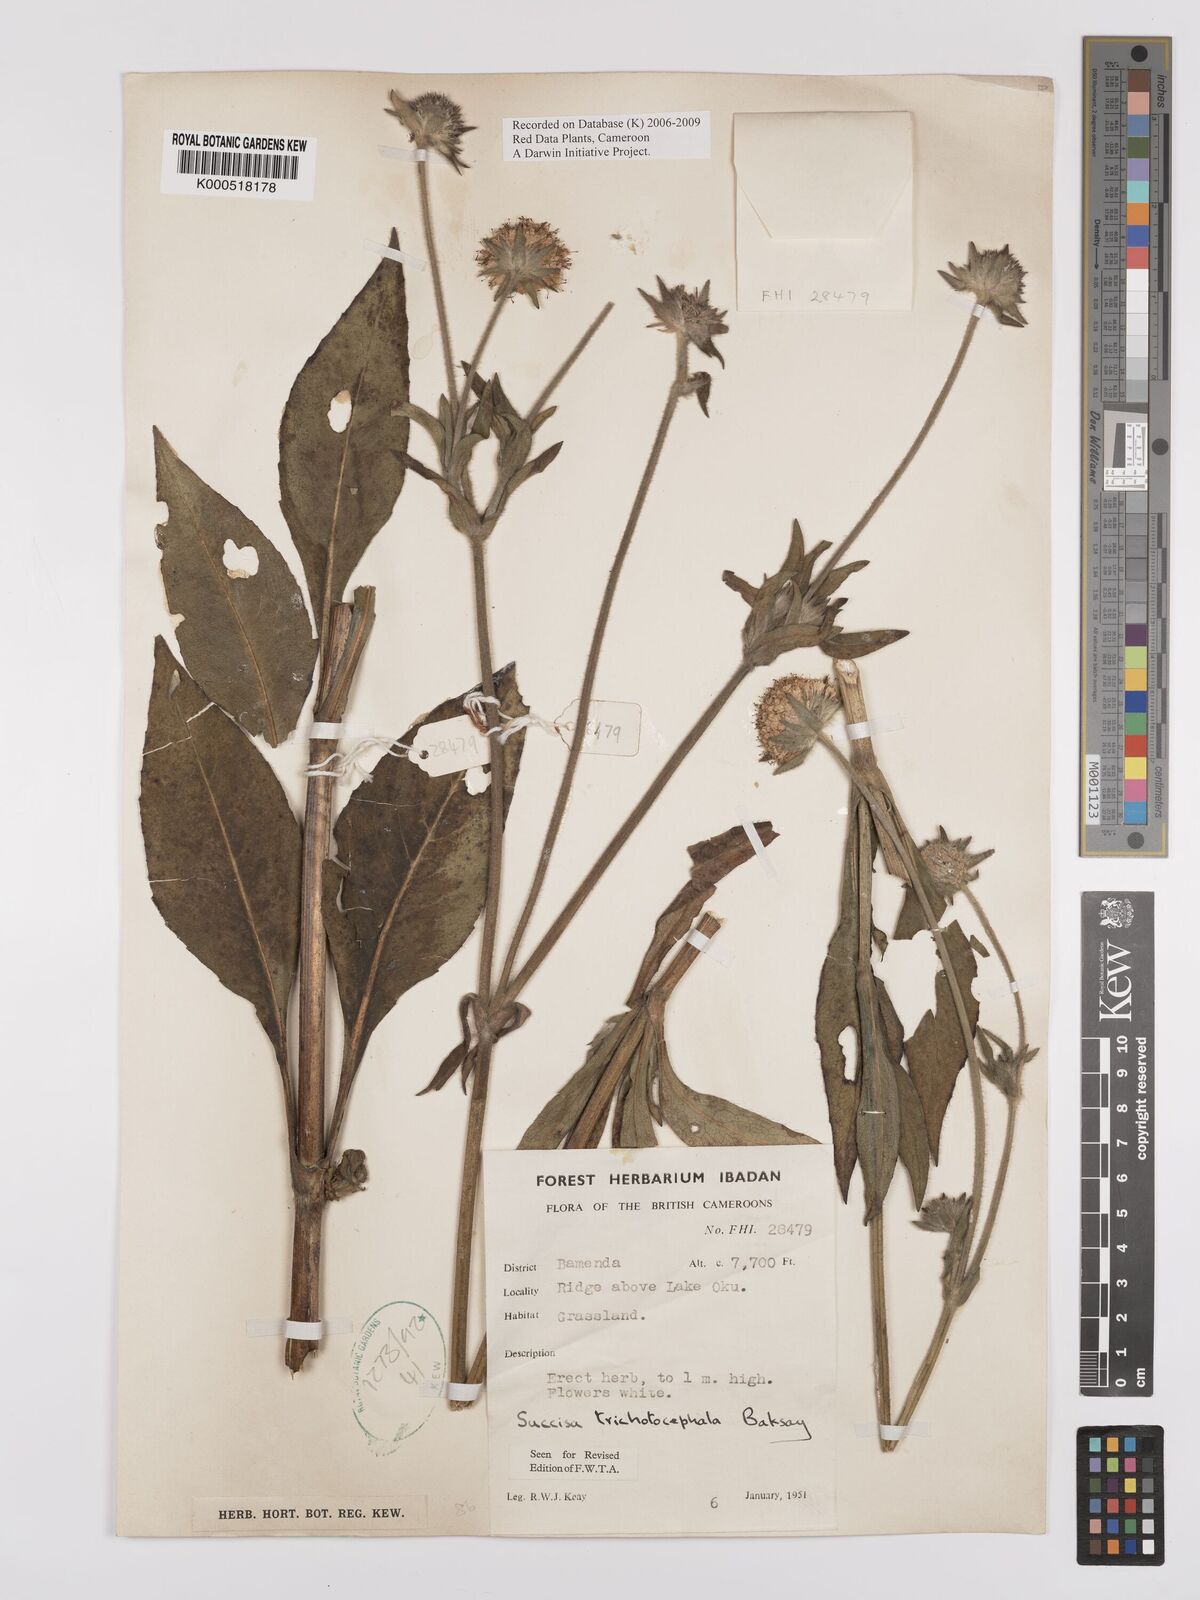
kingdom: Plantae
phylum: Tracheophyta
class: Magnoliopsida
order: Dipsacales
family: Caprifoliaceae
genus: Succisa
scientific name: Succisa trichotocephala
